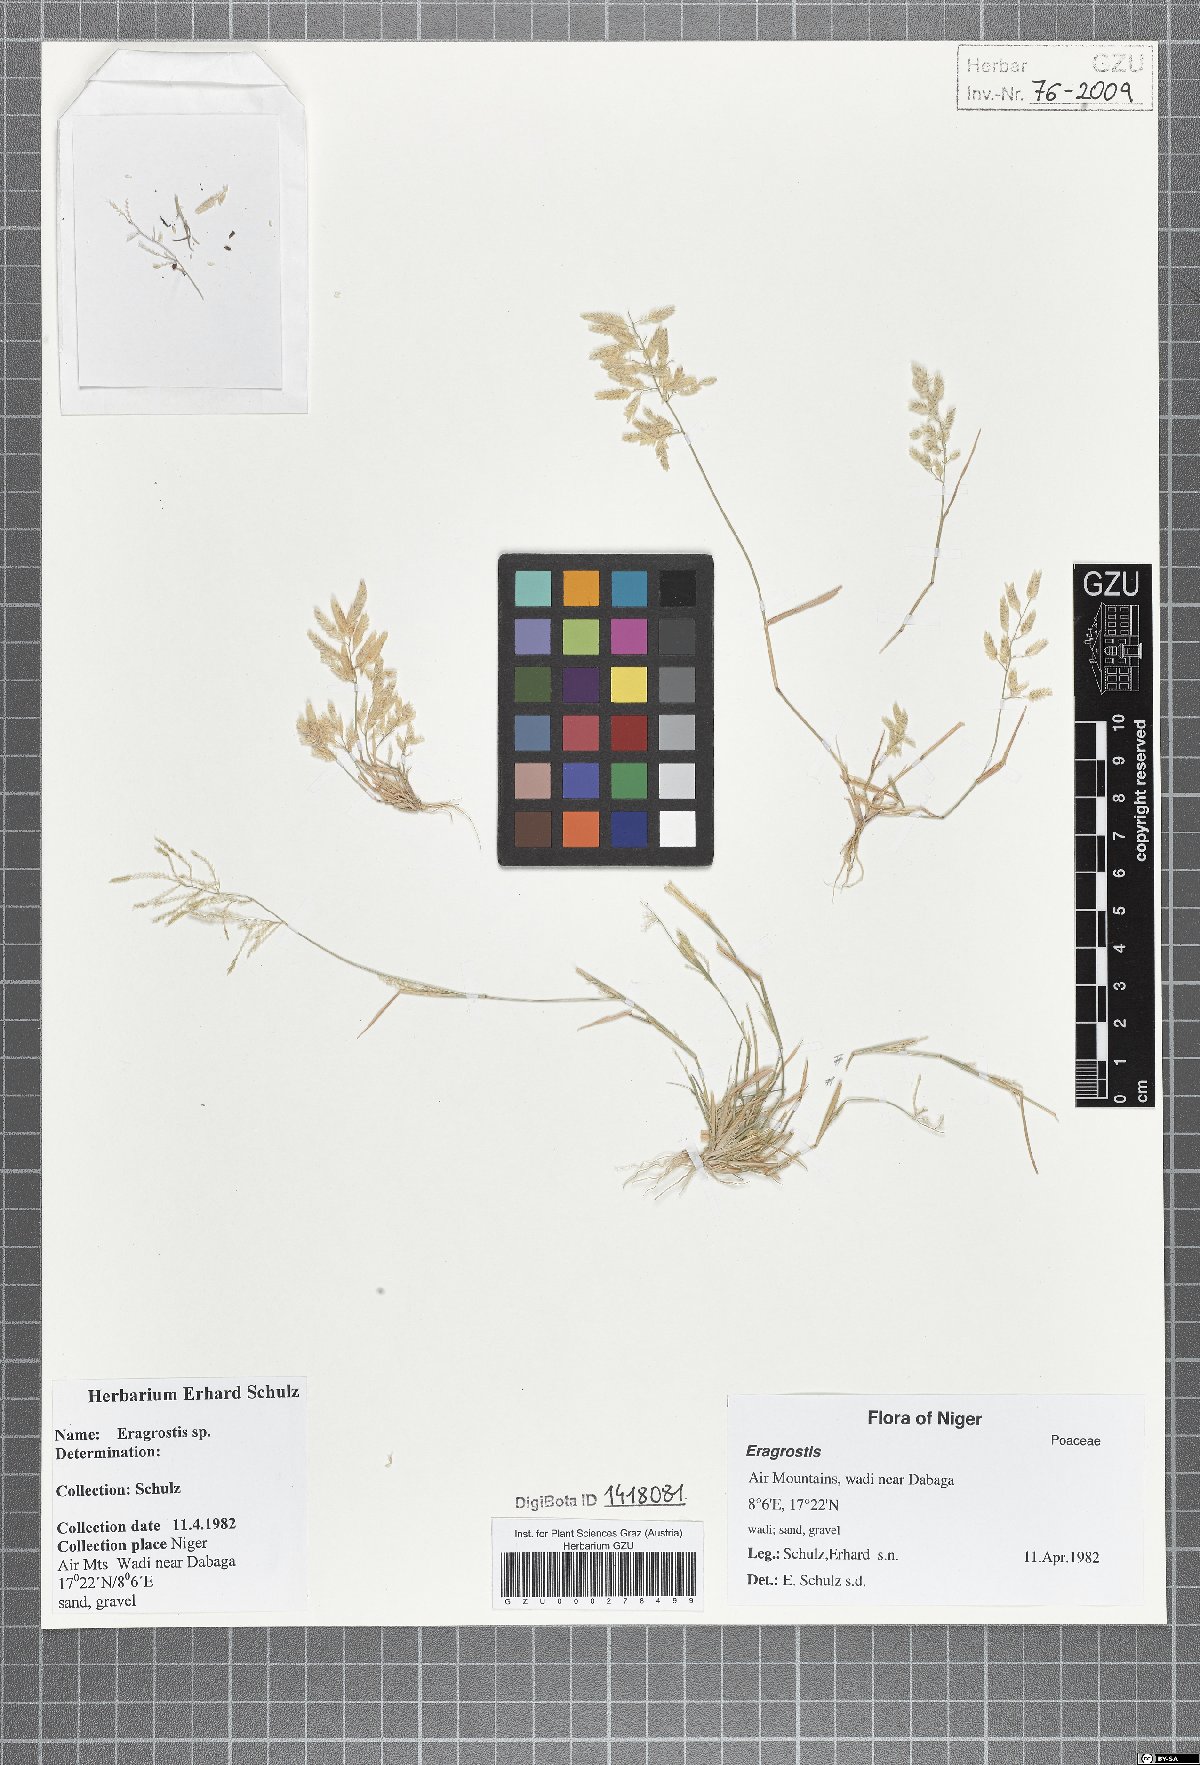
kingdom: Plantae
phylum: Tracheophyta
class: Liliopsida
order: Poales
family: Poaceae
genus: Eragrostis
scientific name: Eragrostis
